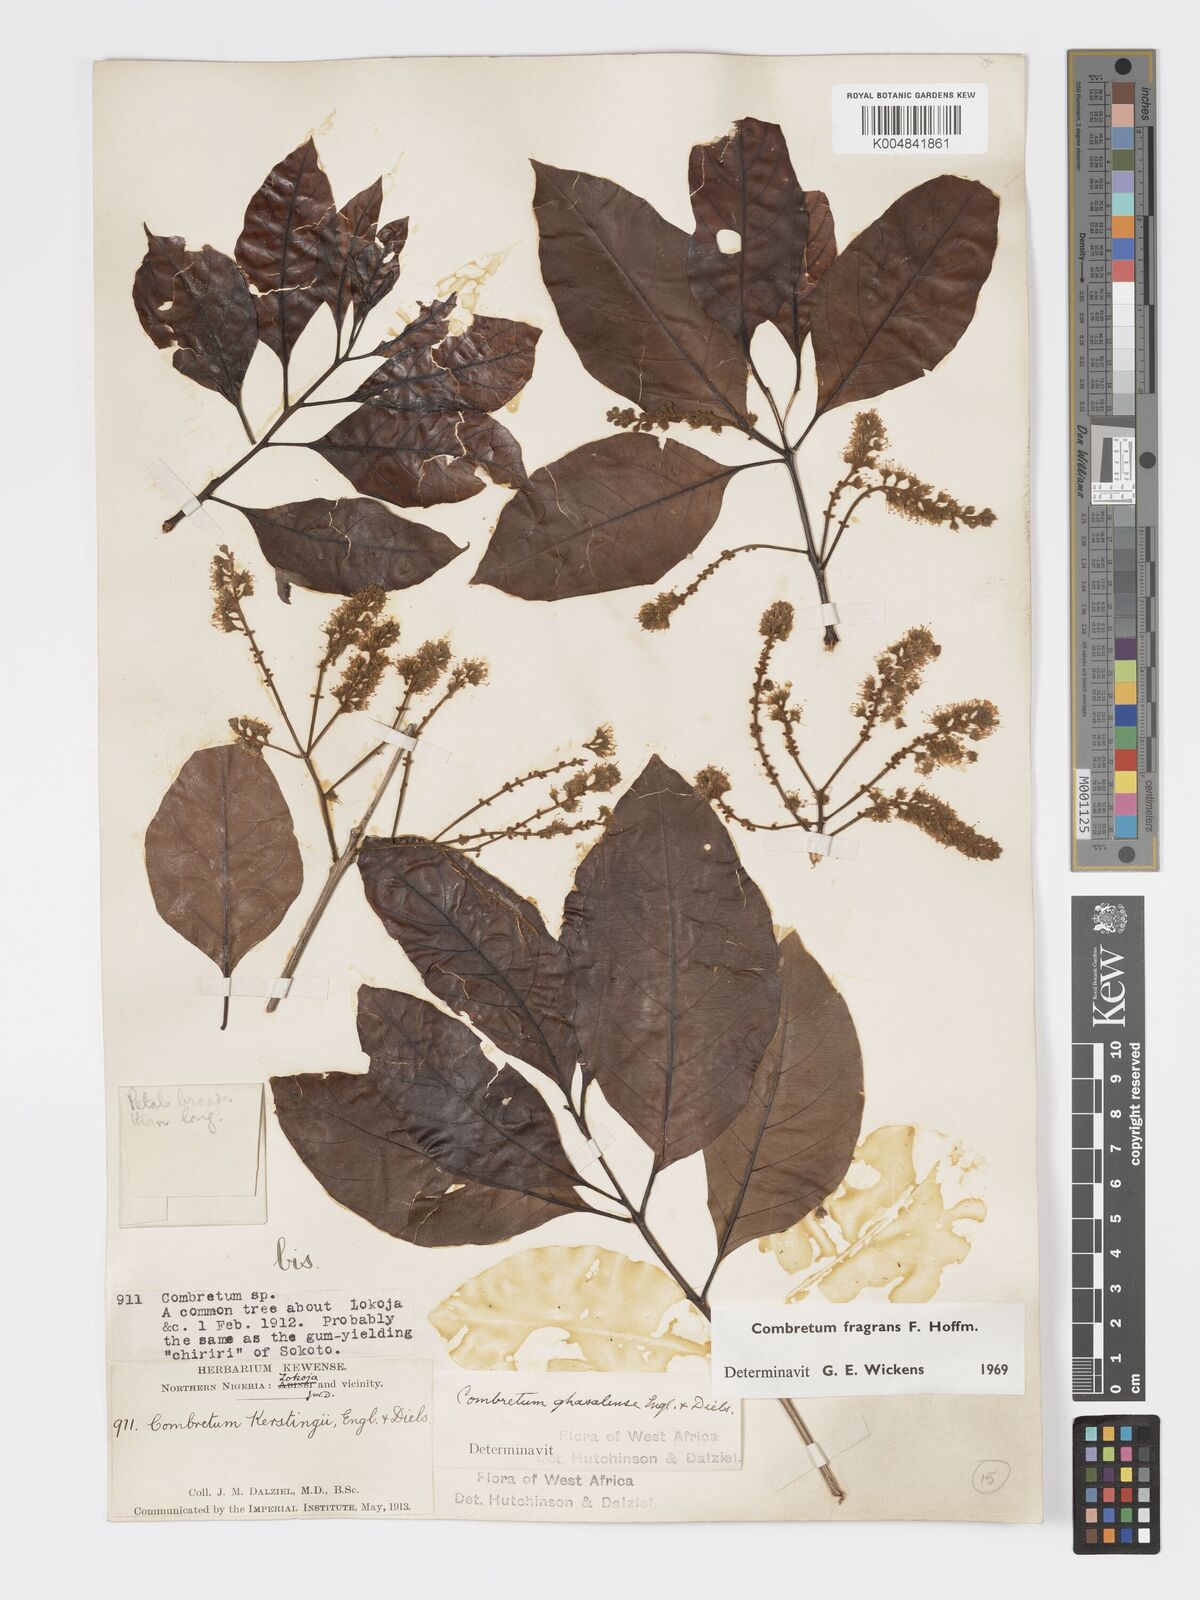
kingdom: Plantae
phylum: Tracheophyta
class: Magnoliopsida
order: Myrtales
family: Combretaceae
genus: Combretum
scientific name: Combretum adenogonium
